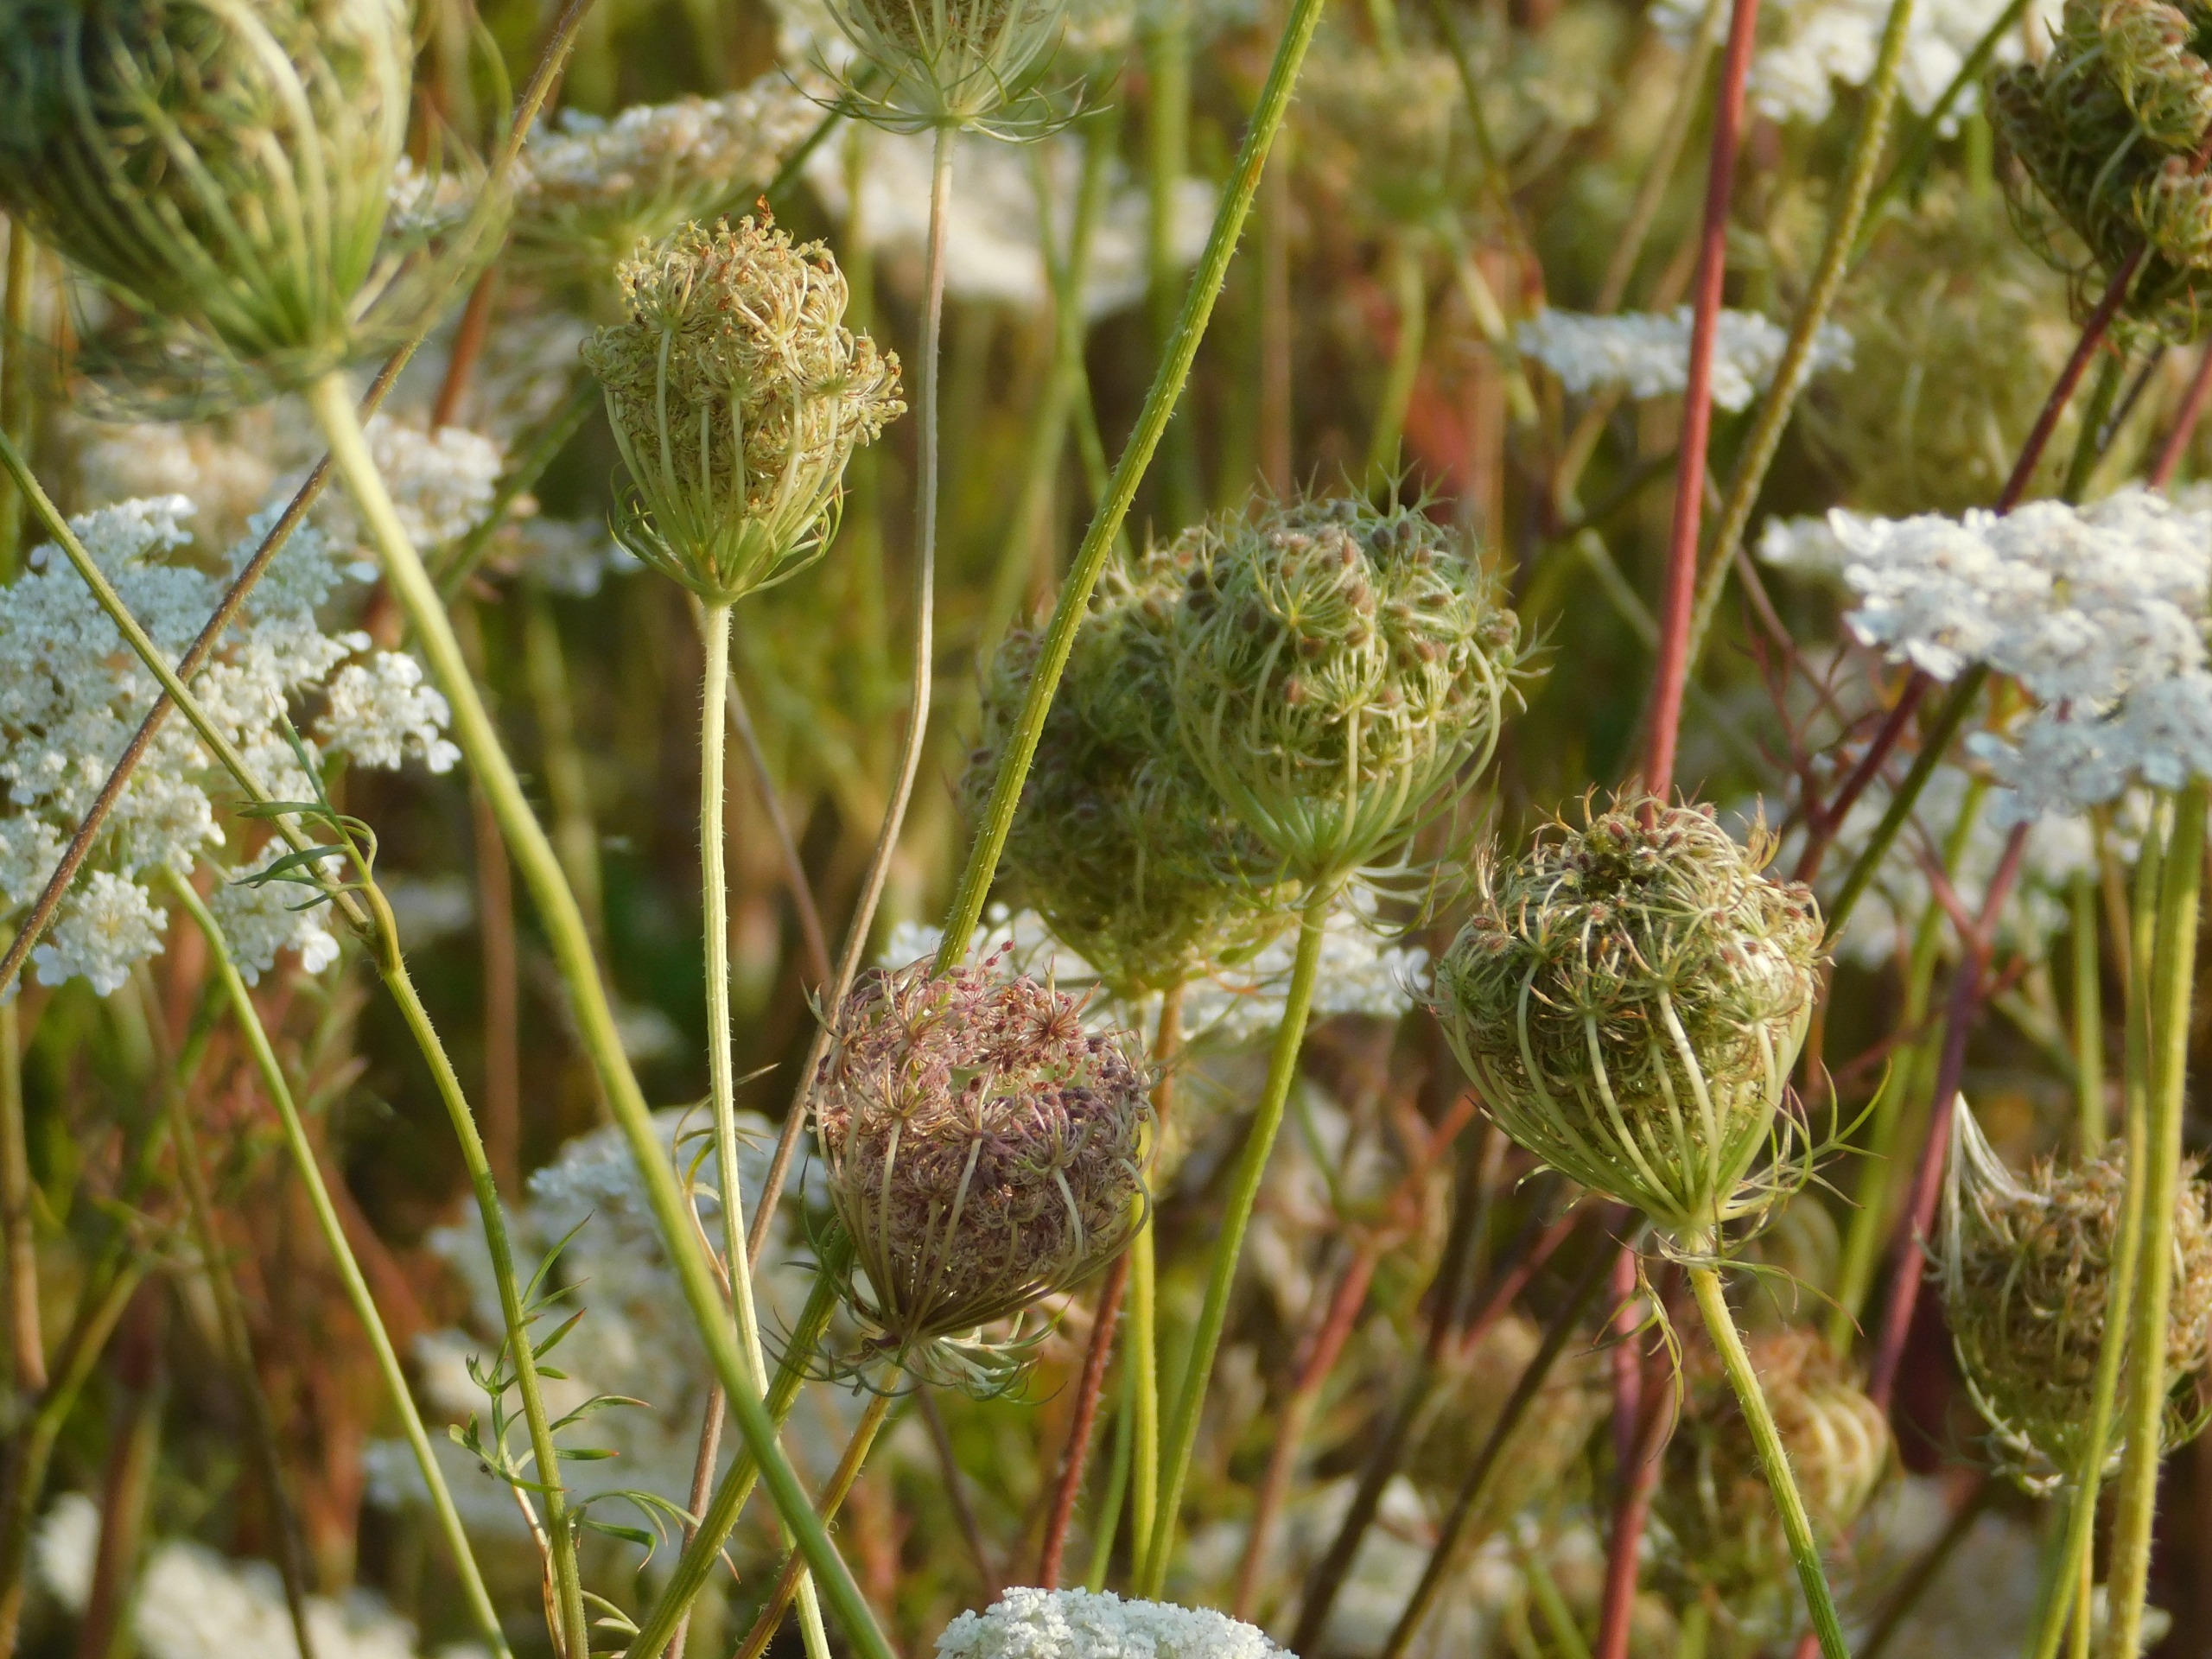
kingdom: Plantae
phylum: Tracheophyta
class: Magnoliopsida
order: Apiales
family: Apiaceae
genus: Daucus
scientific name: Daucus carota
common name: Vild gulerod
